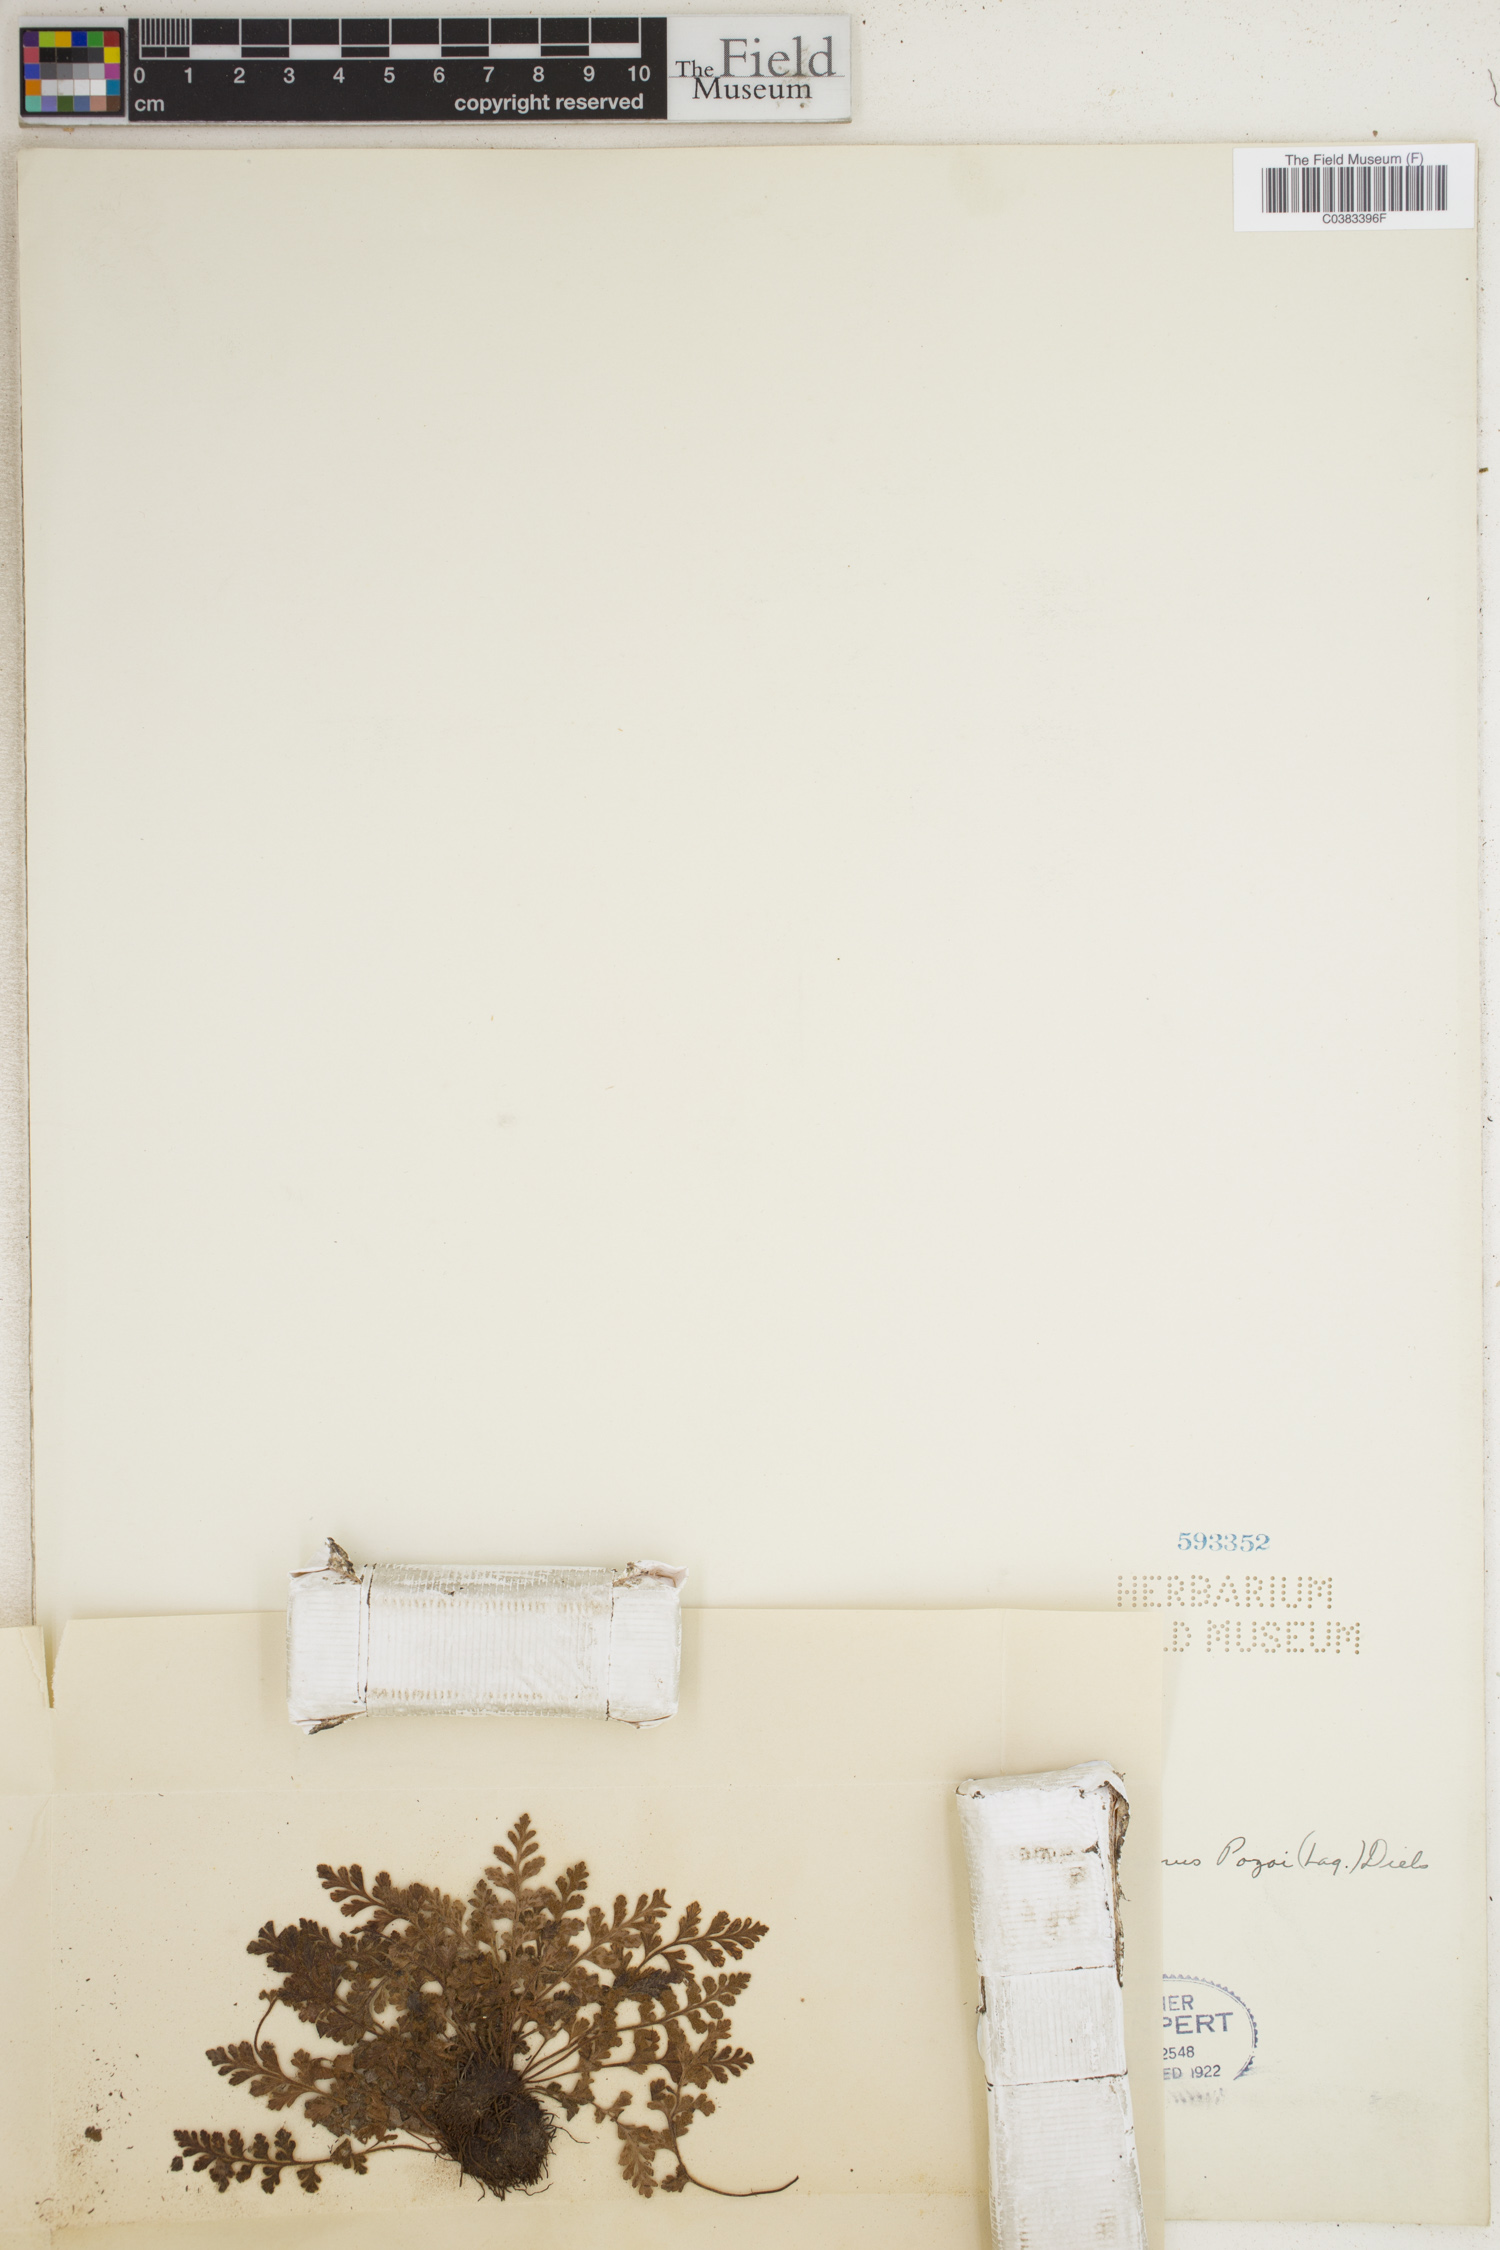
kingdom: Plantae
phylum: Tracheophyta
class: Polypodiopsida
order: Polypodiales
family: Thelypteridaceae
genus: Leptogramma
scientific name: Leptogramma pozoi
